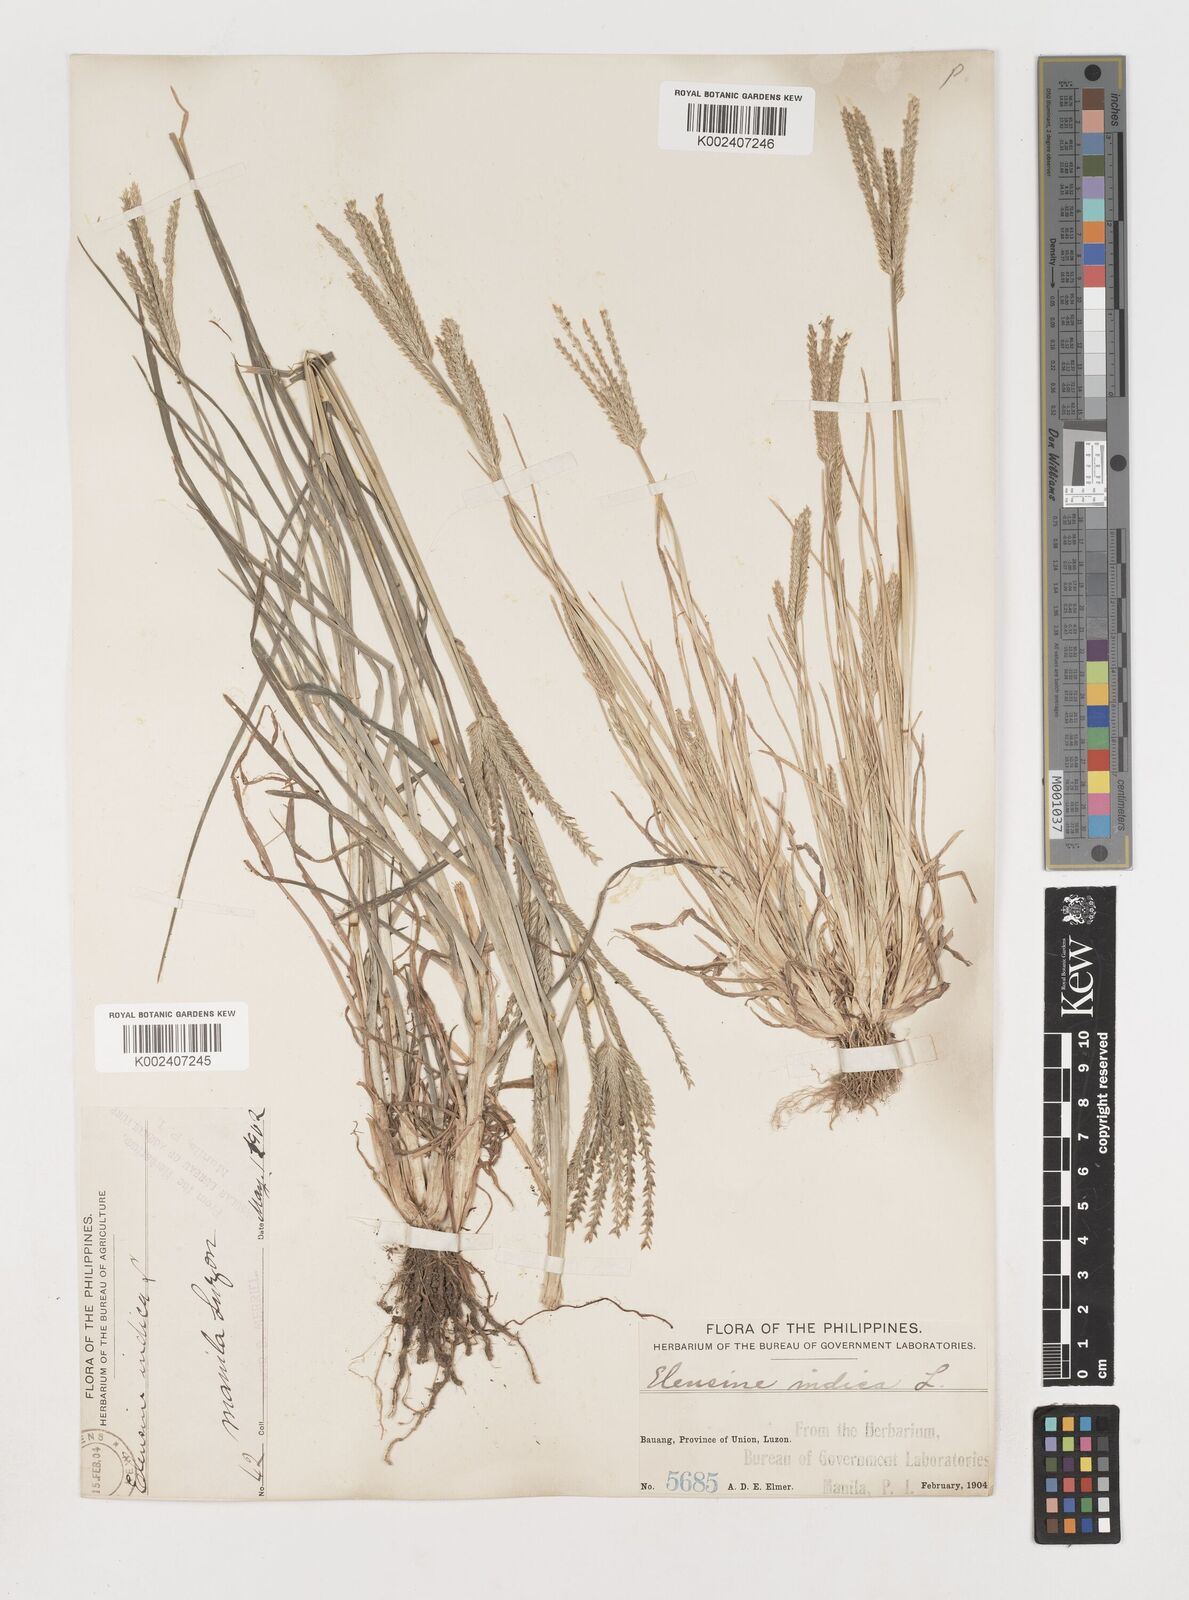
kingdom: Plantae
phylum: Tracheophyta
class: Liliopsida
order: Poales
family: Poaceae
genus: Eleusine
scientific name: Eleusine indica
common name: Yard-grass
